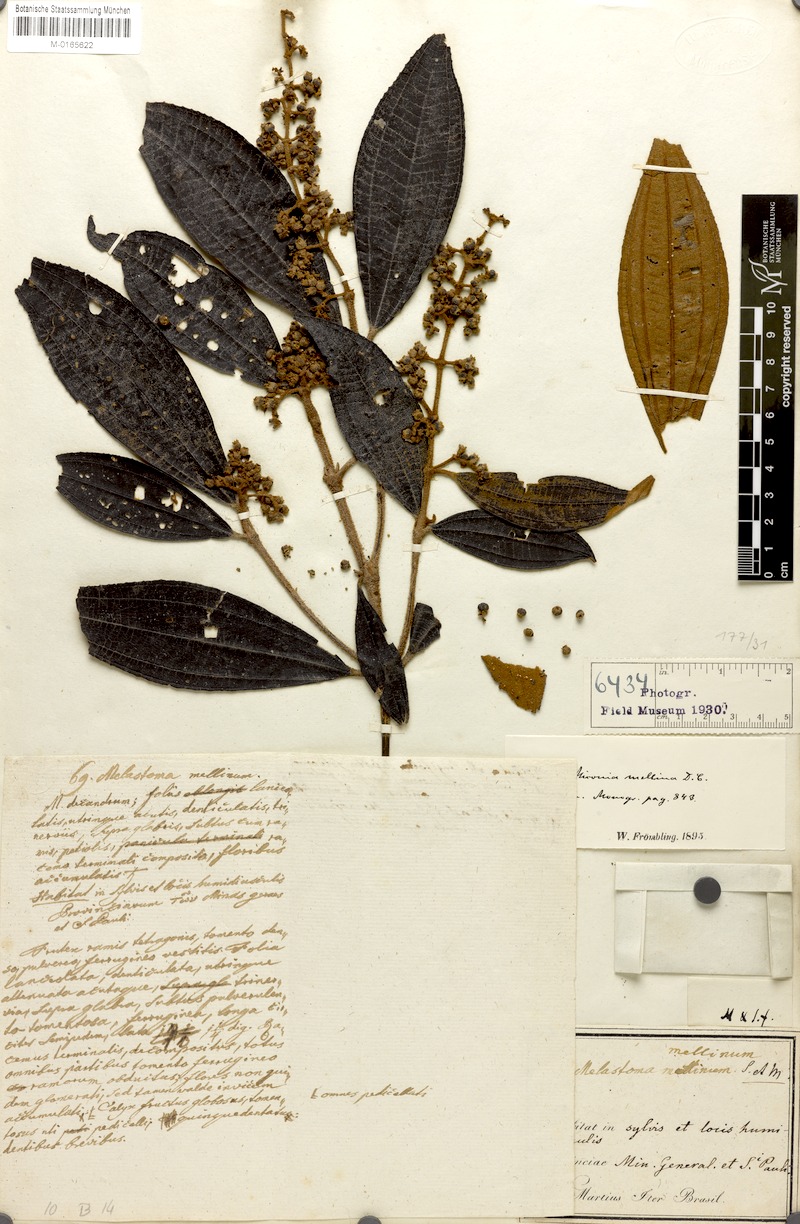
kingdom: Plantae
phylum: Tracheophyta
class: Magnoliopsida
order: Myrtales
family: Melastomataceae
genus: Miconia
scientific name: Miconia mellina
